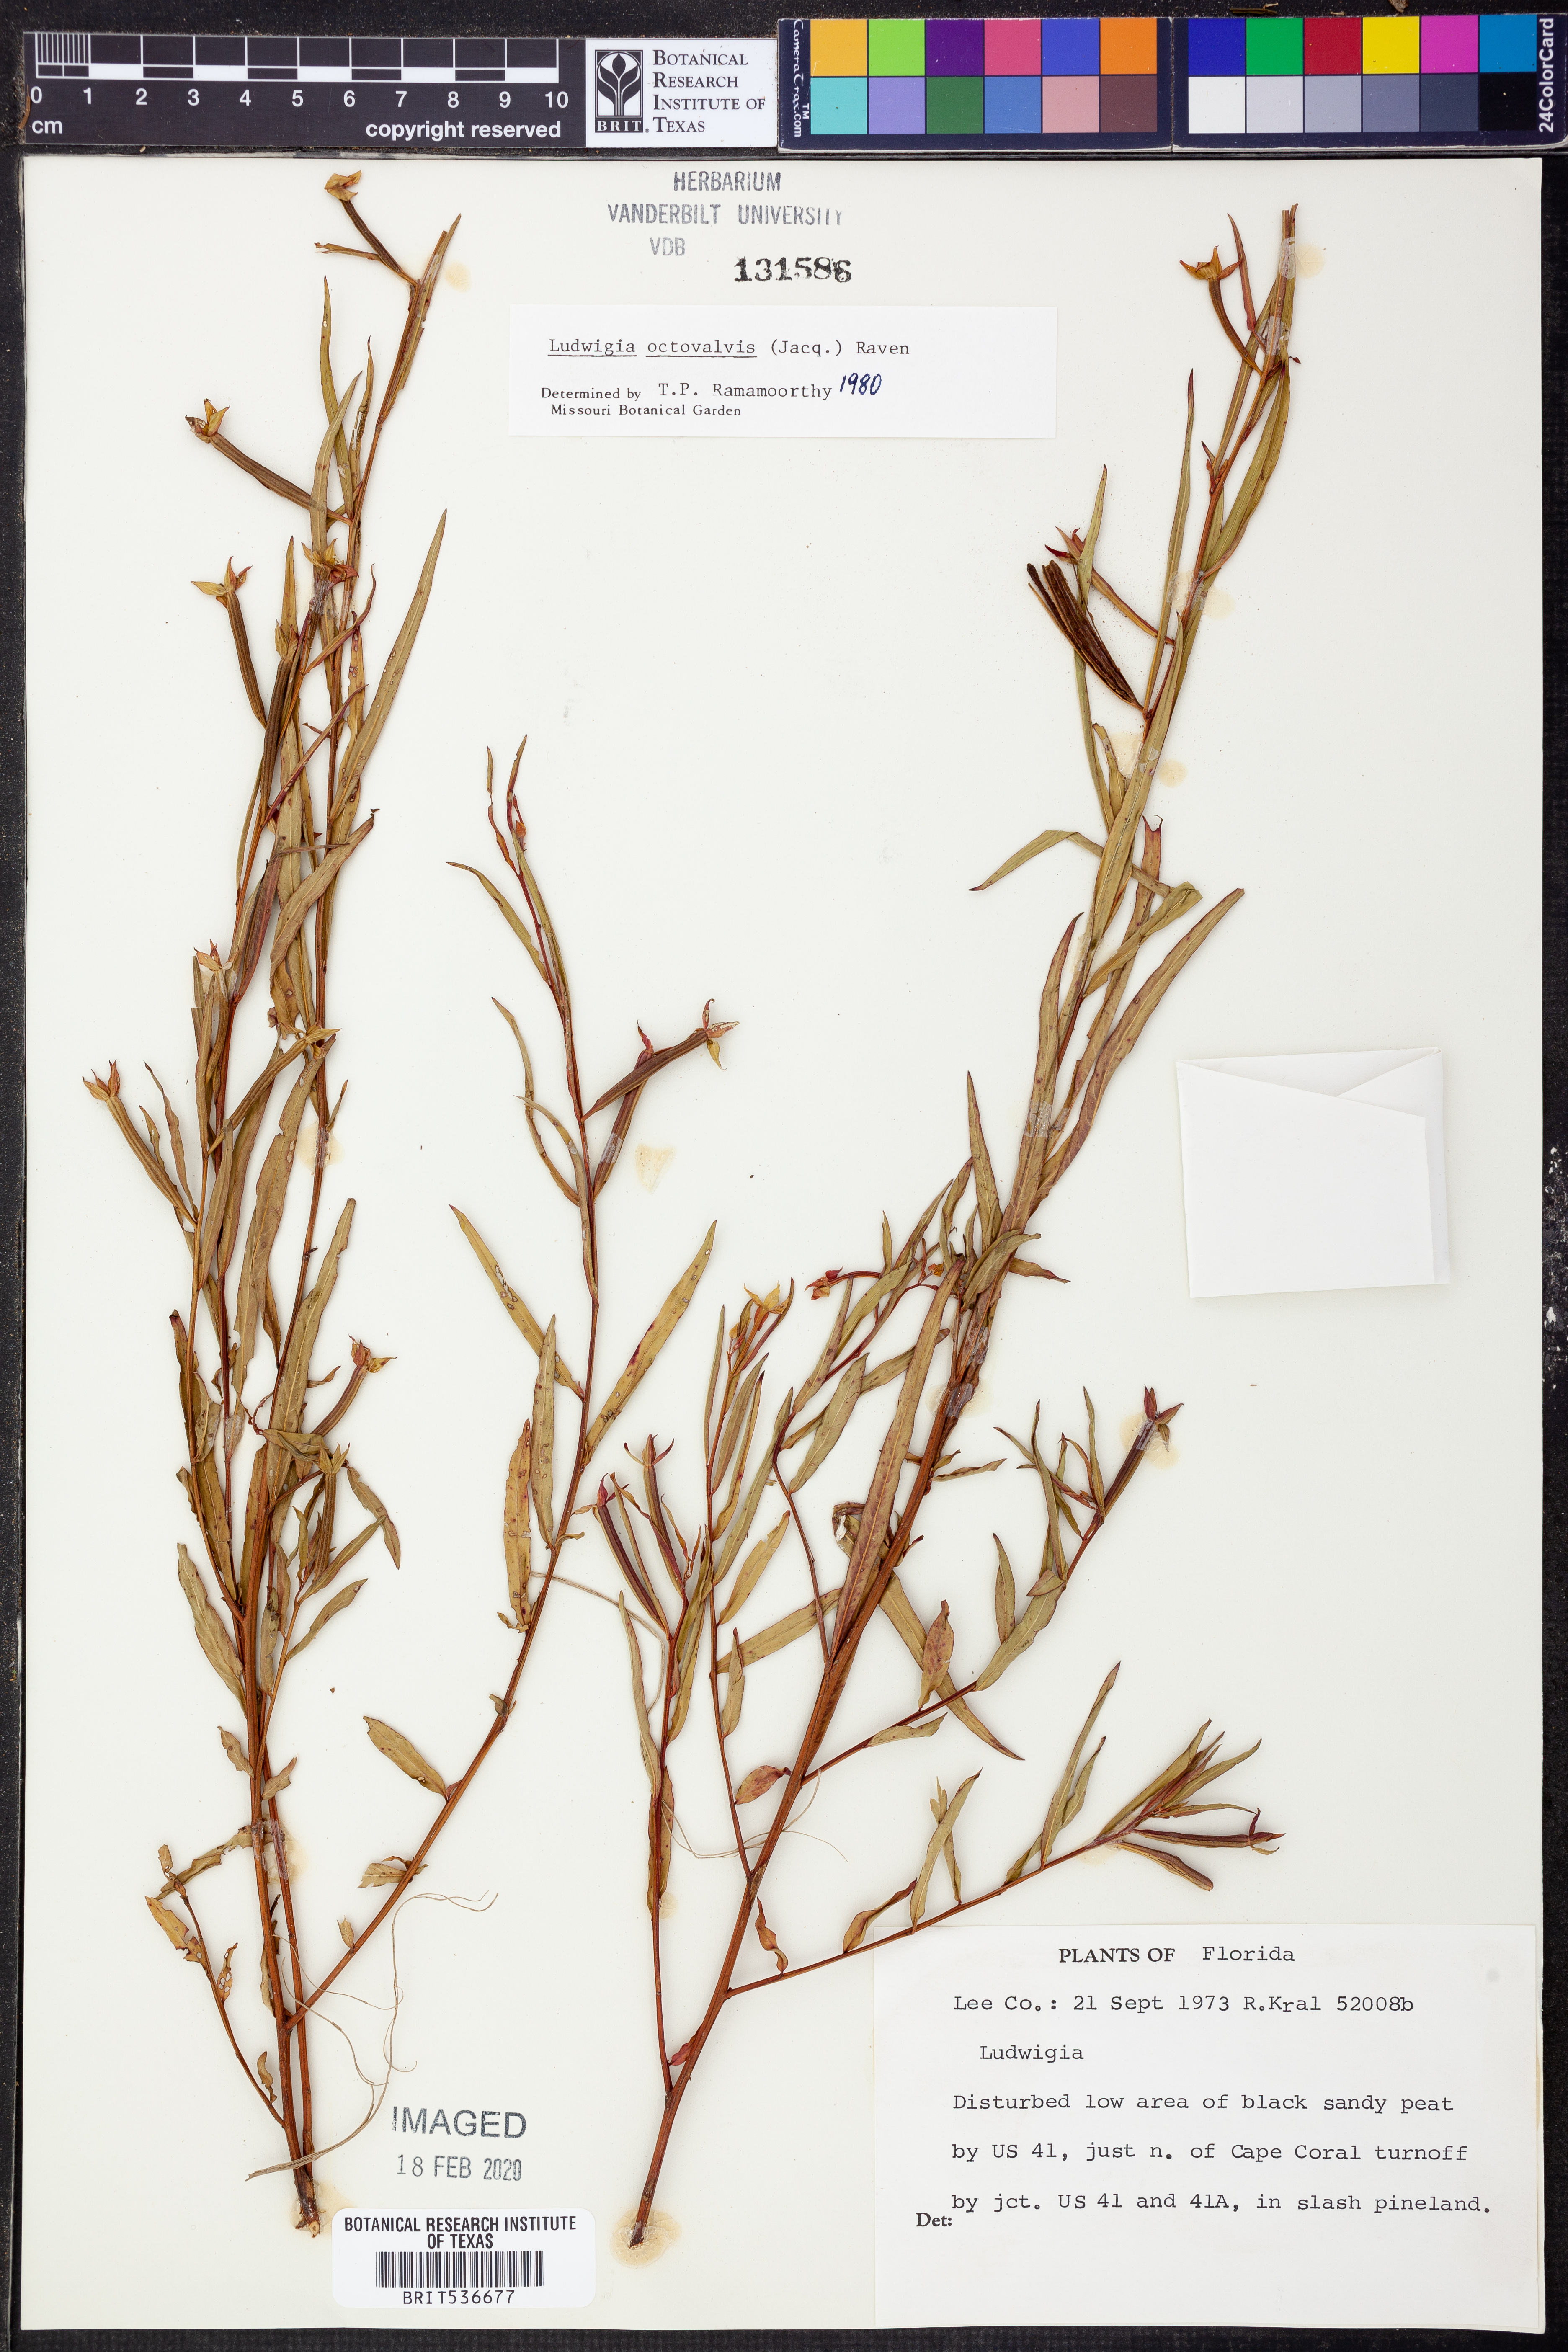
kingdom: Plantae
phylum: Tracheophyta
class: Magnoliopsida
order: Myrtales
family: Onagraceae
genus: Ludwigia
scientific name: Ludwigia octovalvis
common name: Water-primrose
